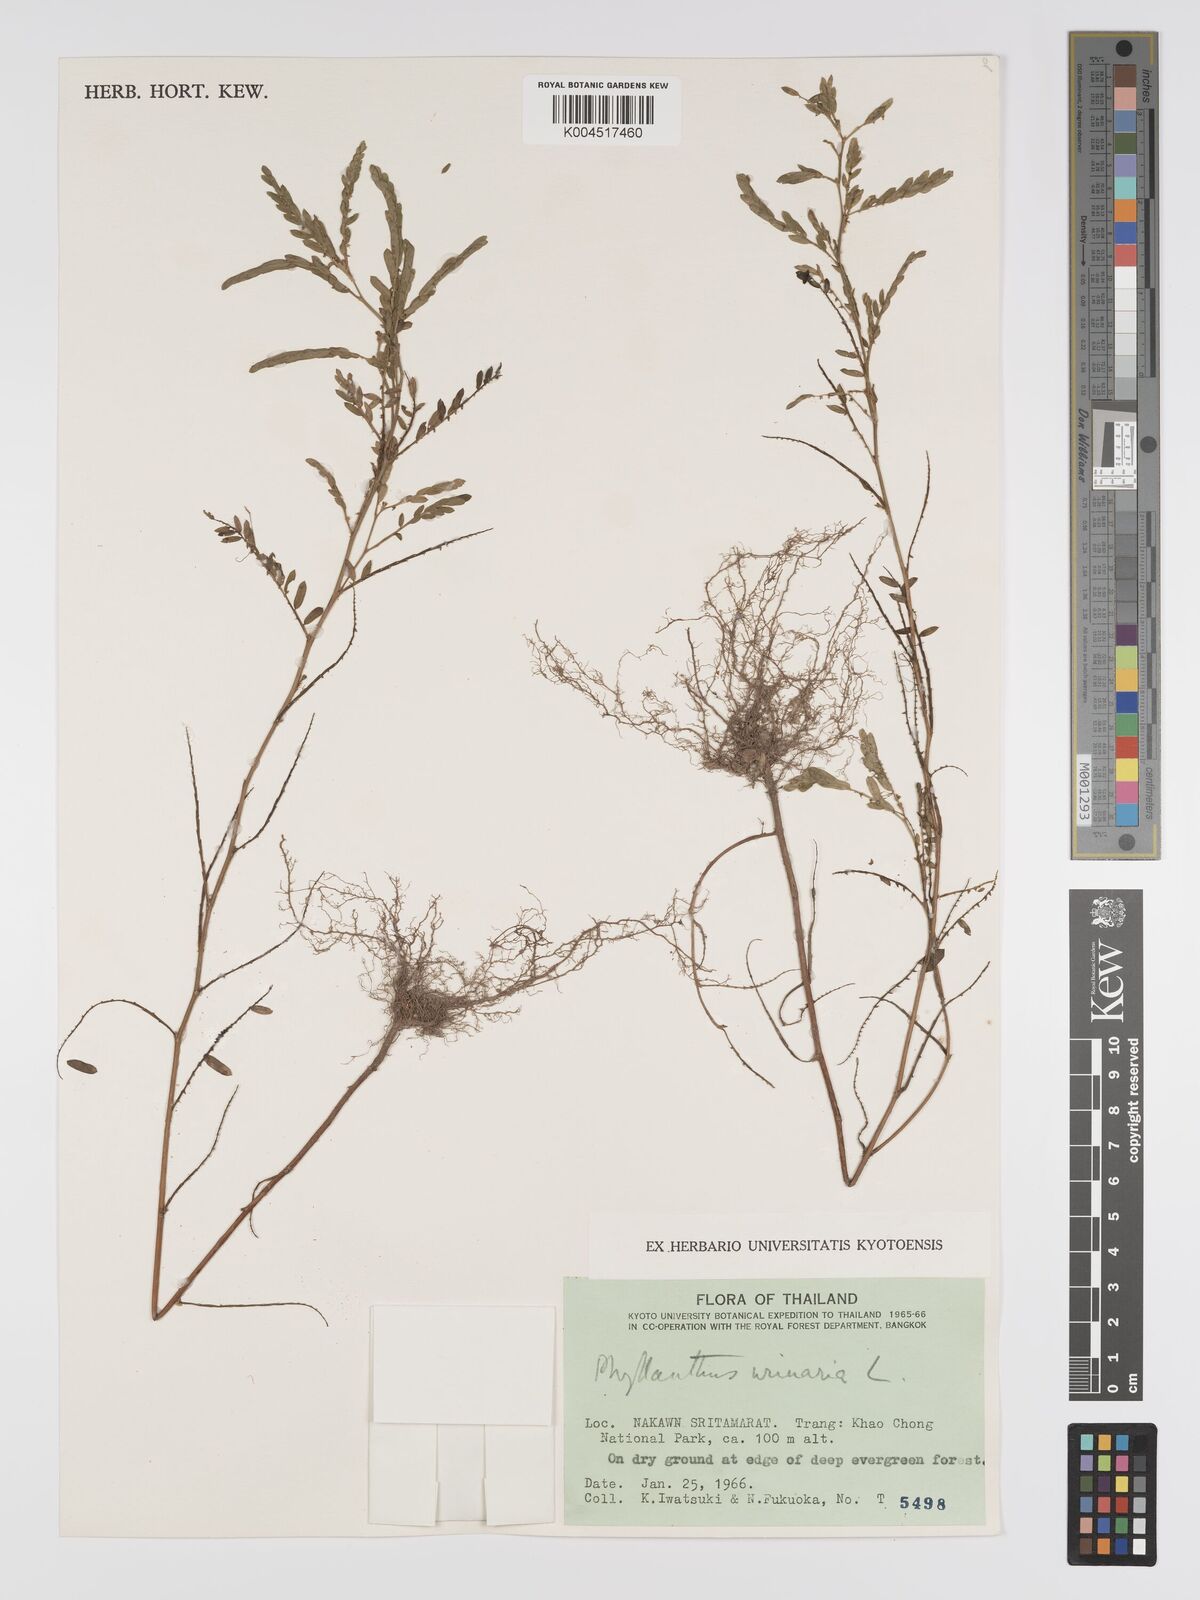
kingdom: Plantae
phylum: Tracheophyta
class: Magnoliopsida
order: Malpighiales
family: Phyllanthaceae
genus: Phyllanthus
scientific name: Phyllanthus urinaria
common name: Chamber bitter
